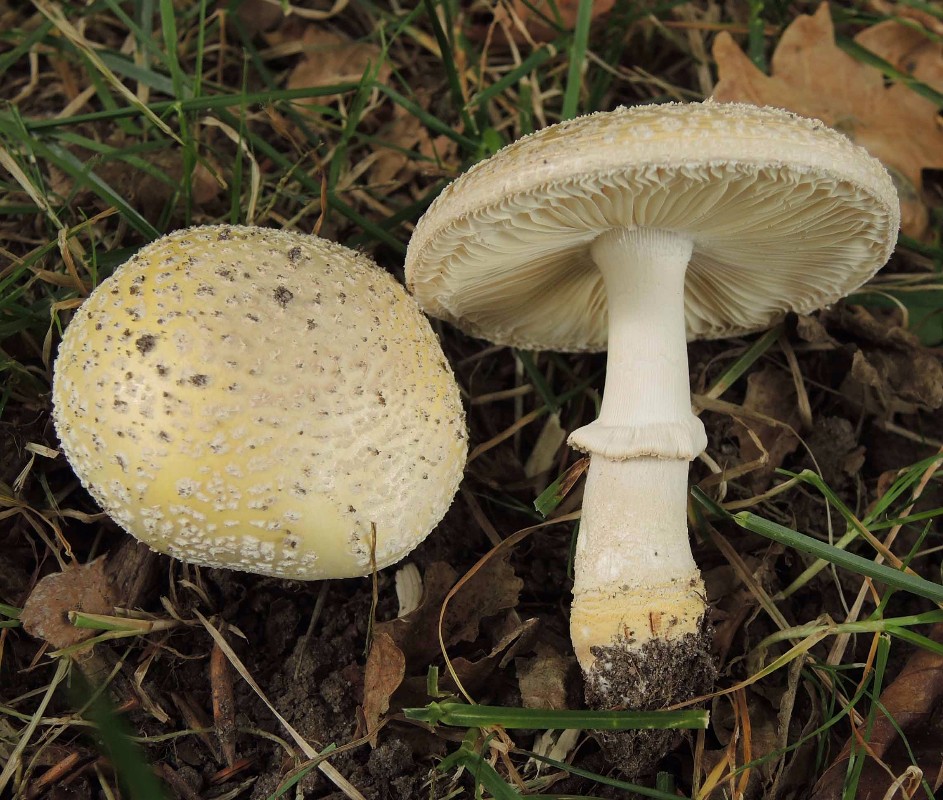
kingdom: Fungi
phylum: Basidiomycota
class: Agaricomycetes
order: Agaricales
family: Amanitaceae
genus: Amanita
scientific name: Amanita franchetii
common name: gulrandet fluesvamp
